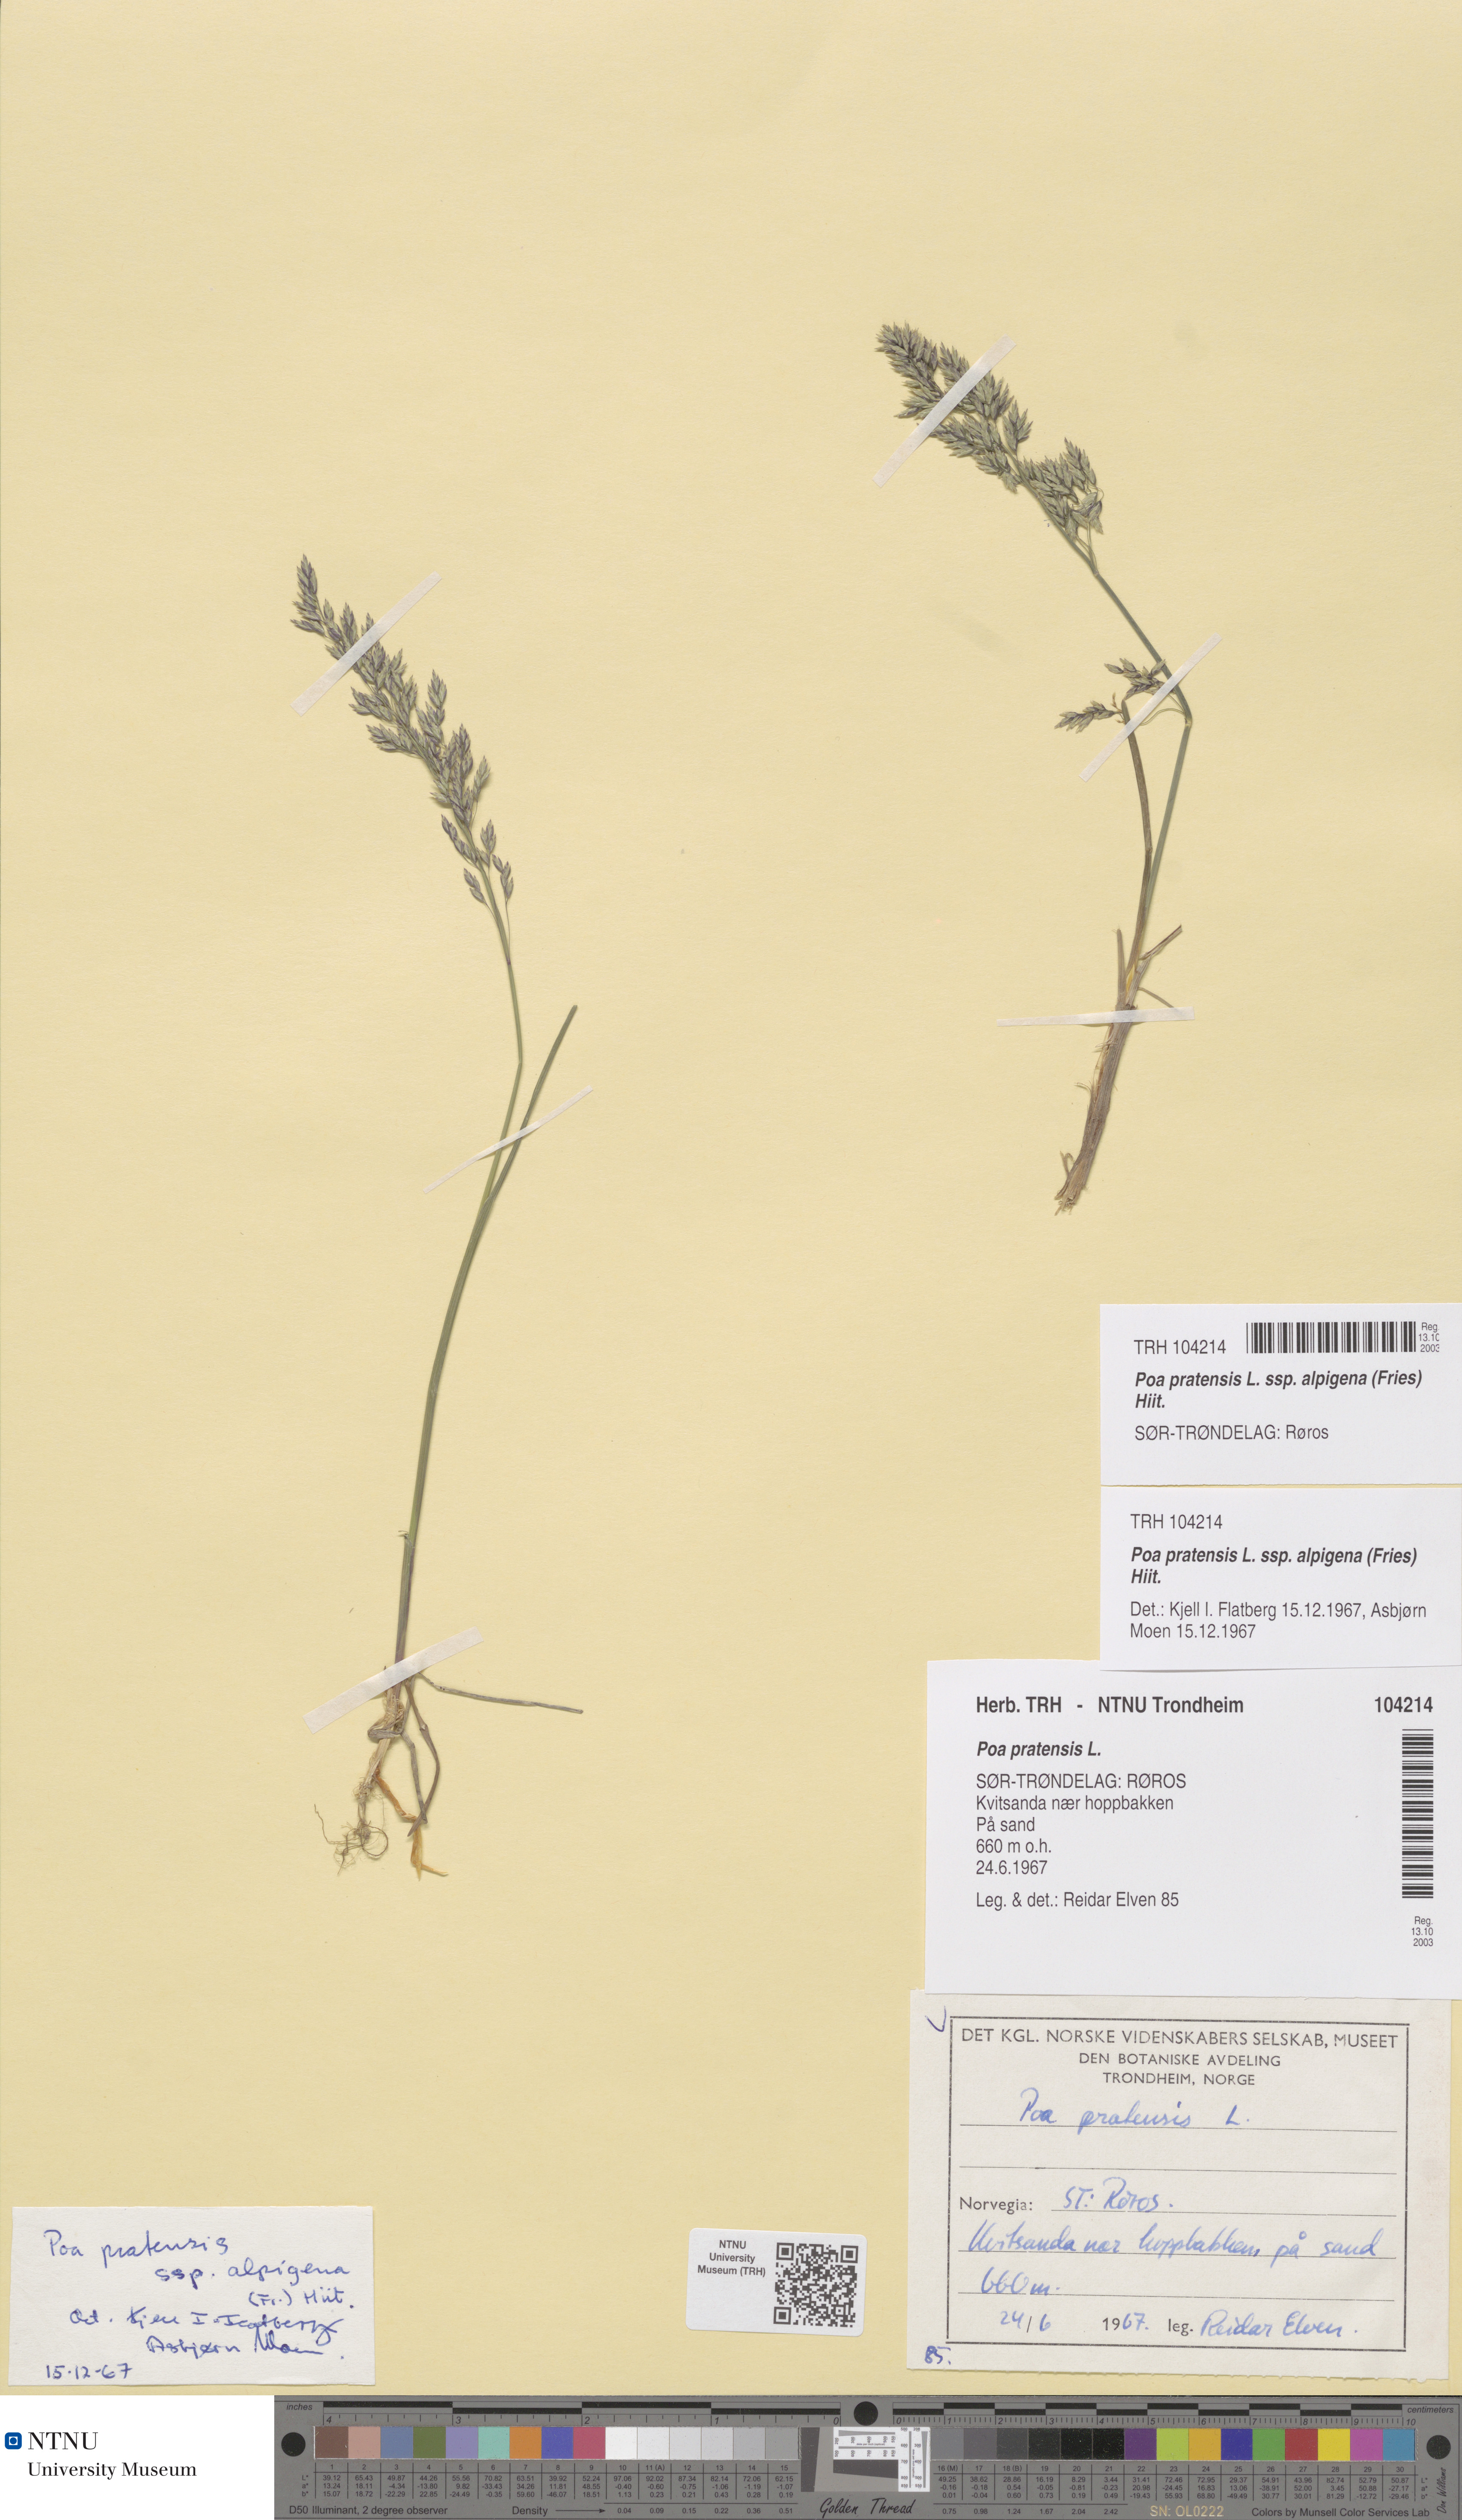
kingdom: Plantae
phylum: Tracheophyta
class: Liliopsida
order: Poales
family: Poaceae
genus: Poa
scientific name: Poa alpigena
